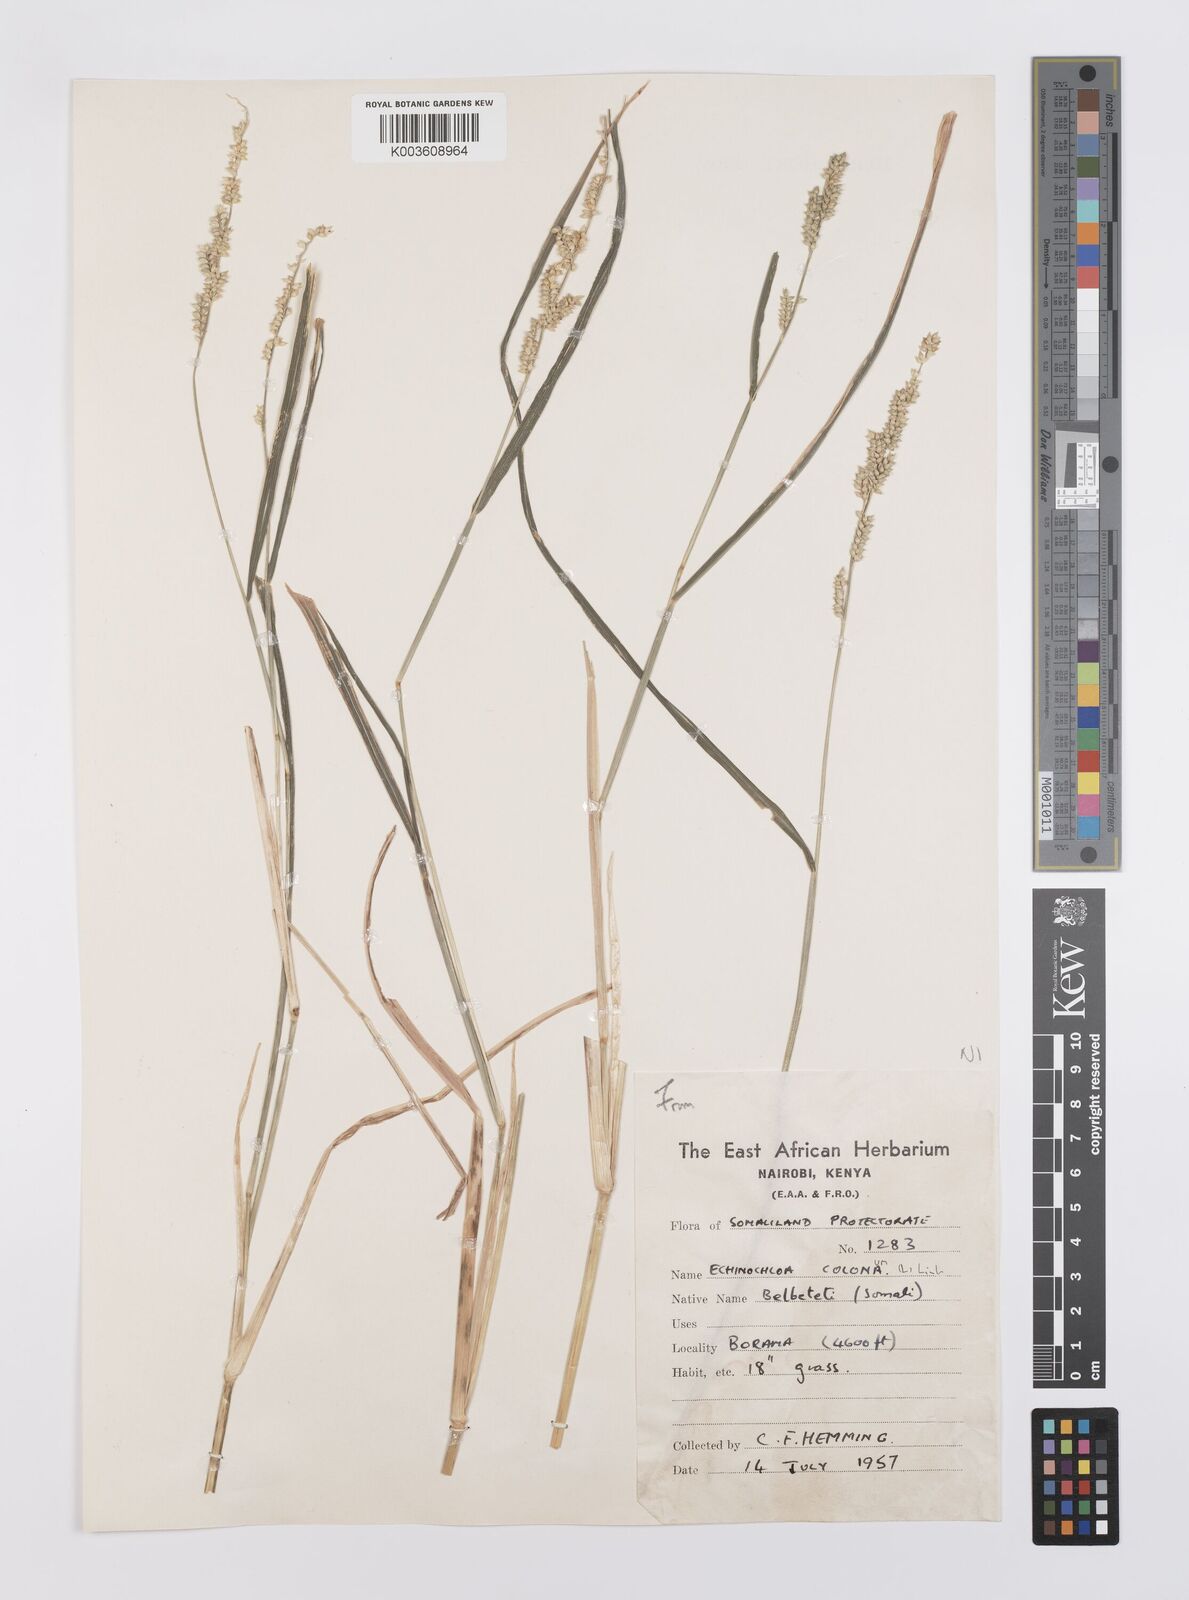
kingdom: Plantae
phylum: Tracheophyta
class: Liliopsida
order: Poales
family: Poaceae
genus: Echinochloa
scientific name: Echinochloa colonum
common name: Jungle rice
